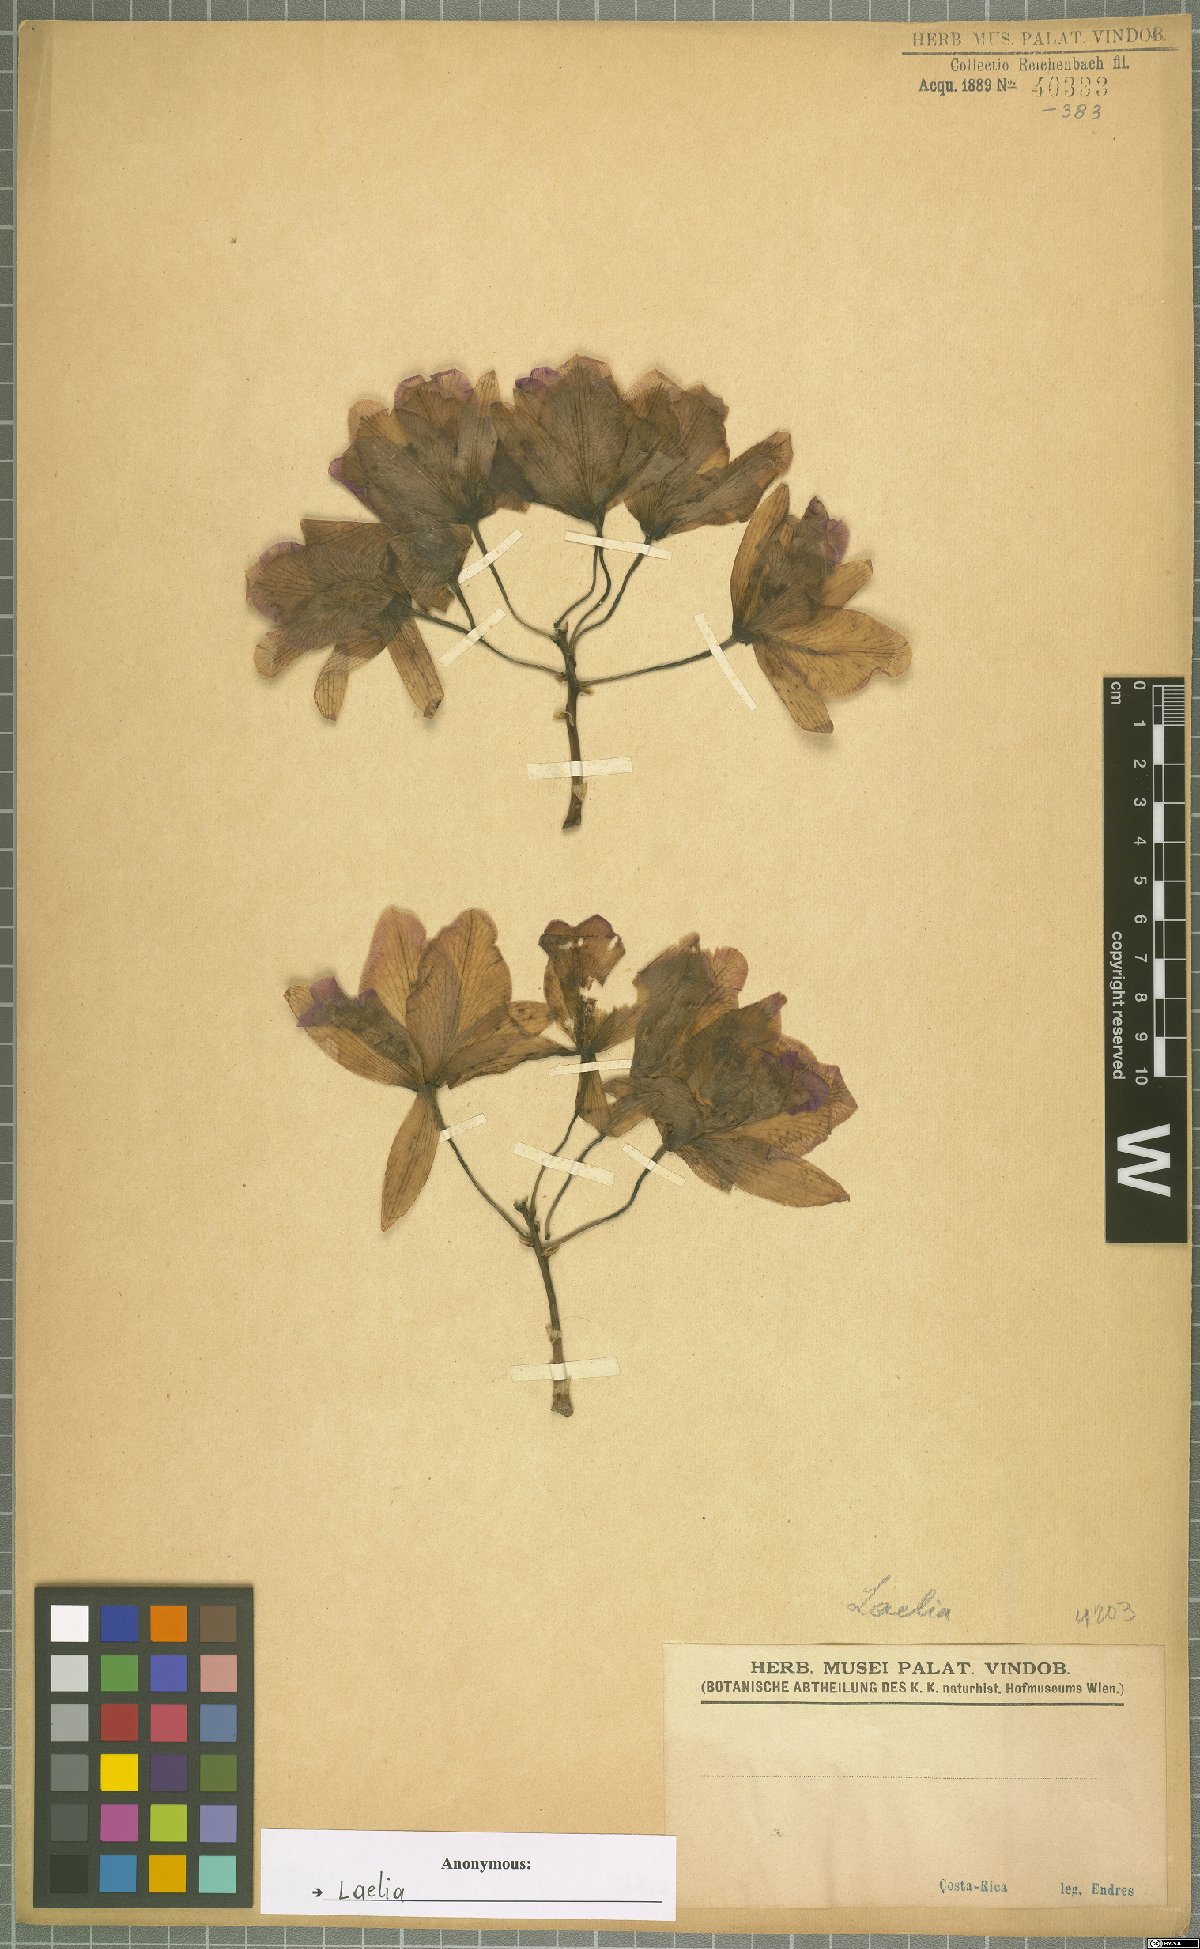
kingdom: Plantae
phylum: Tracheophyta
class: Liliopsida
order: Asparagales
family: Orchidaceae
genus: Laelia
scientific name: Laelia
